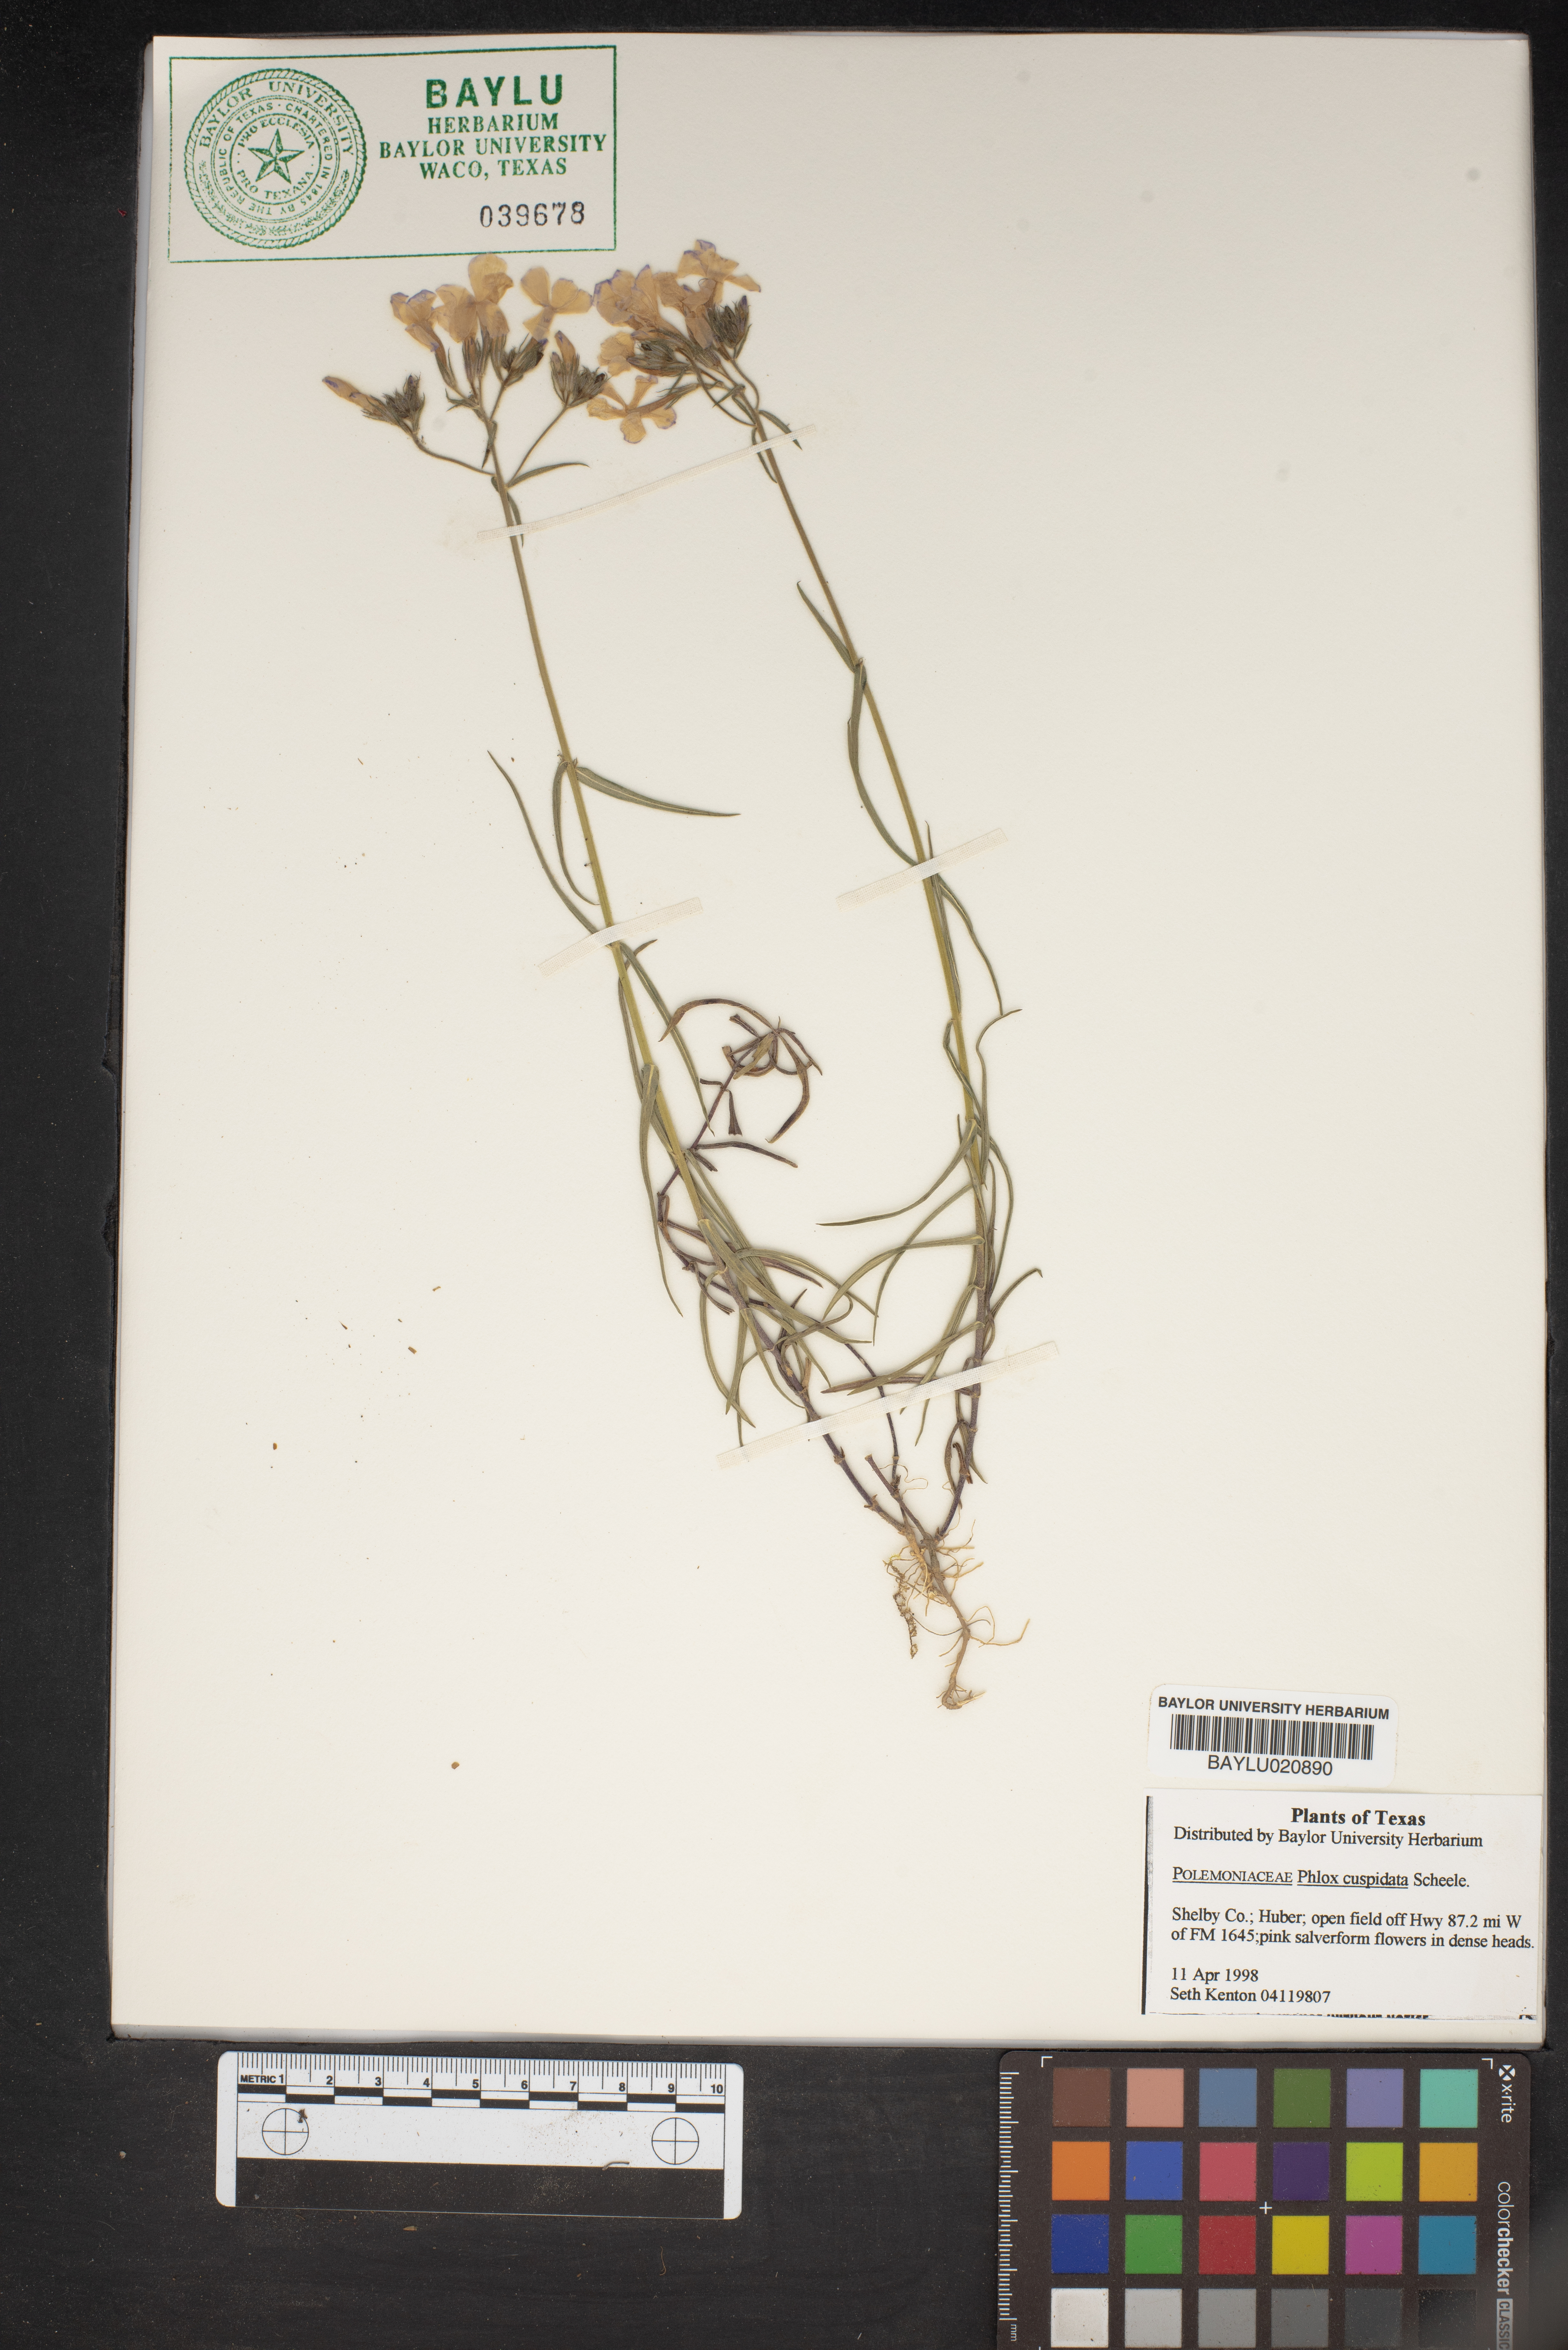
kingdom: Plantae
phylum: Tracheophyta
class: Magnoliopsida
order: Ericales
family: Polemoniaceae
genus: Phlox
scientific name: Phlox cuspidata
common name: Pointed phlox
